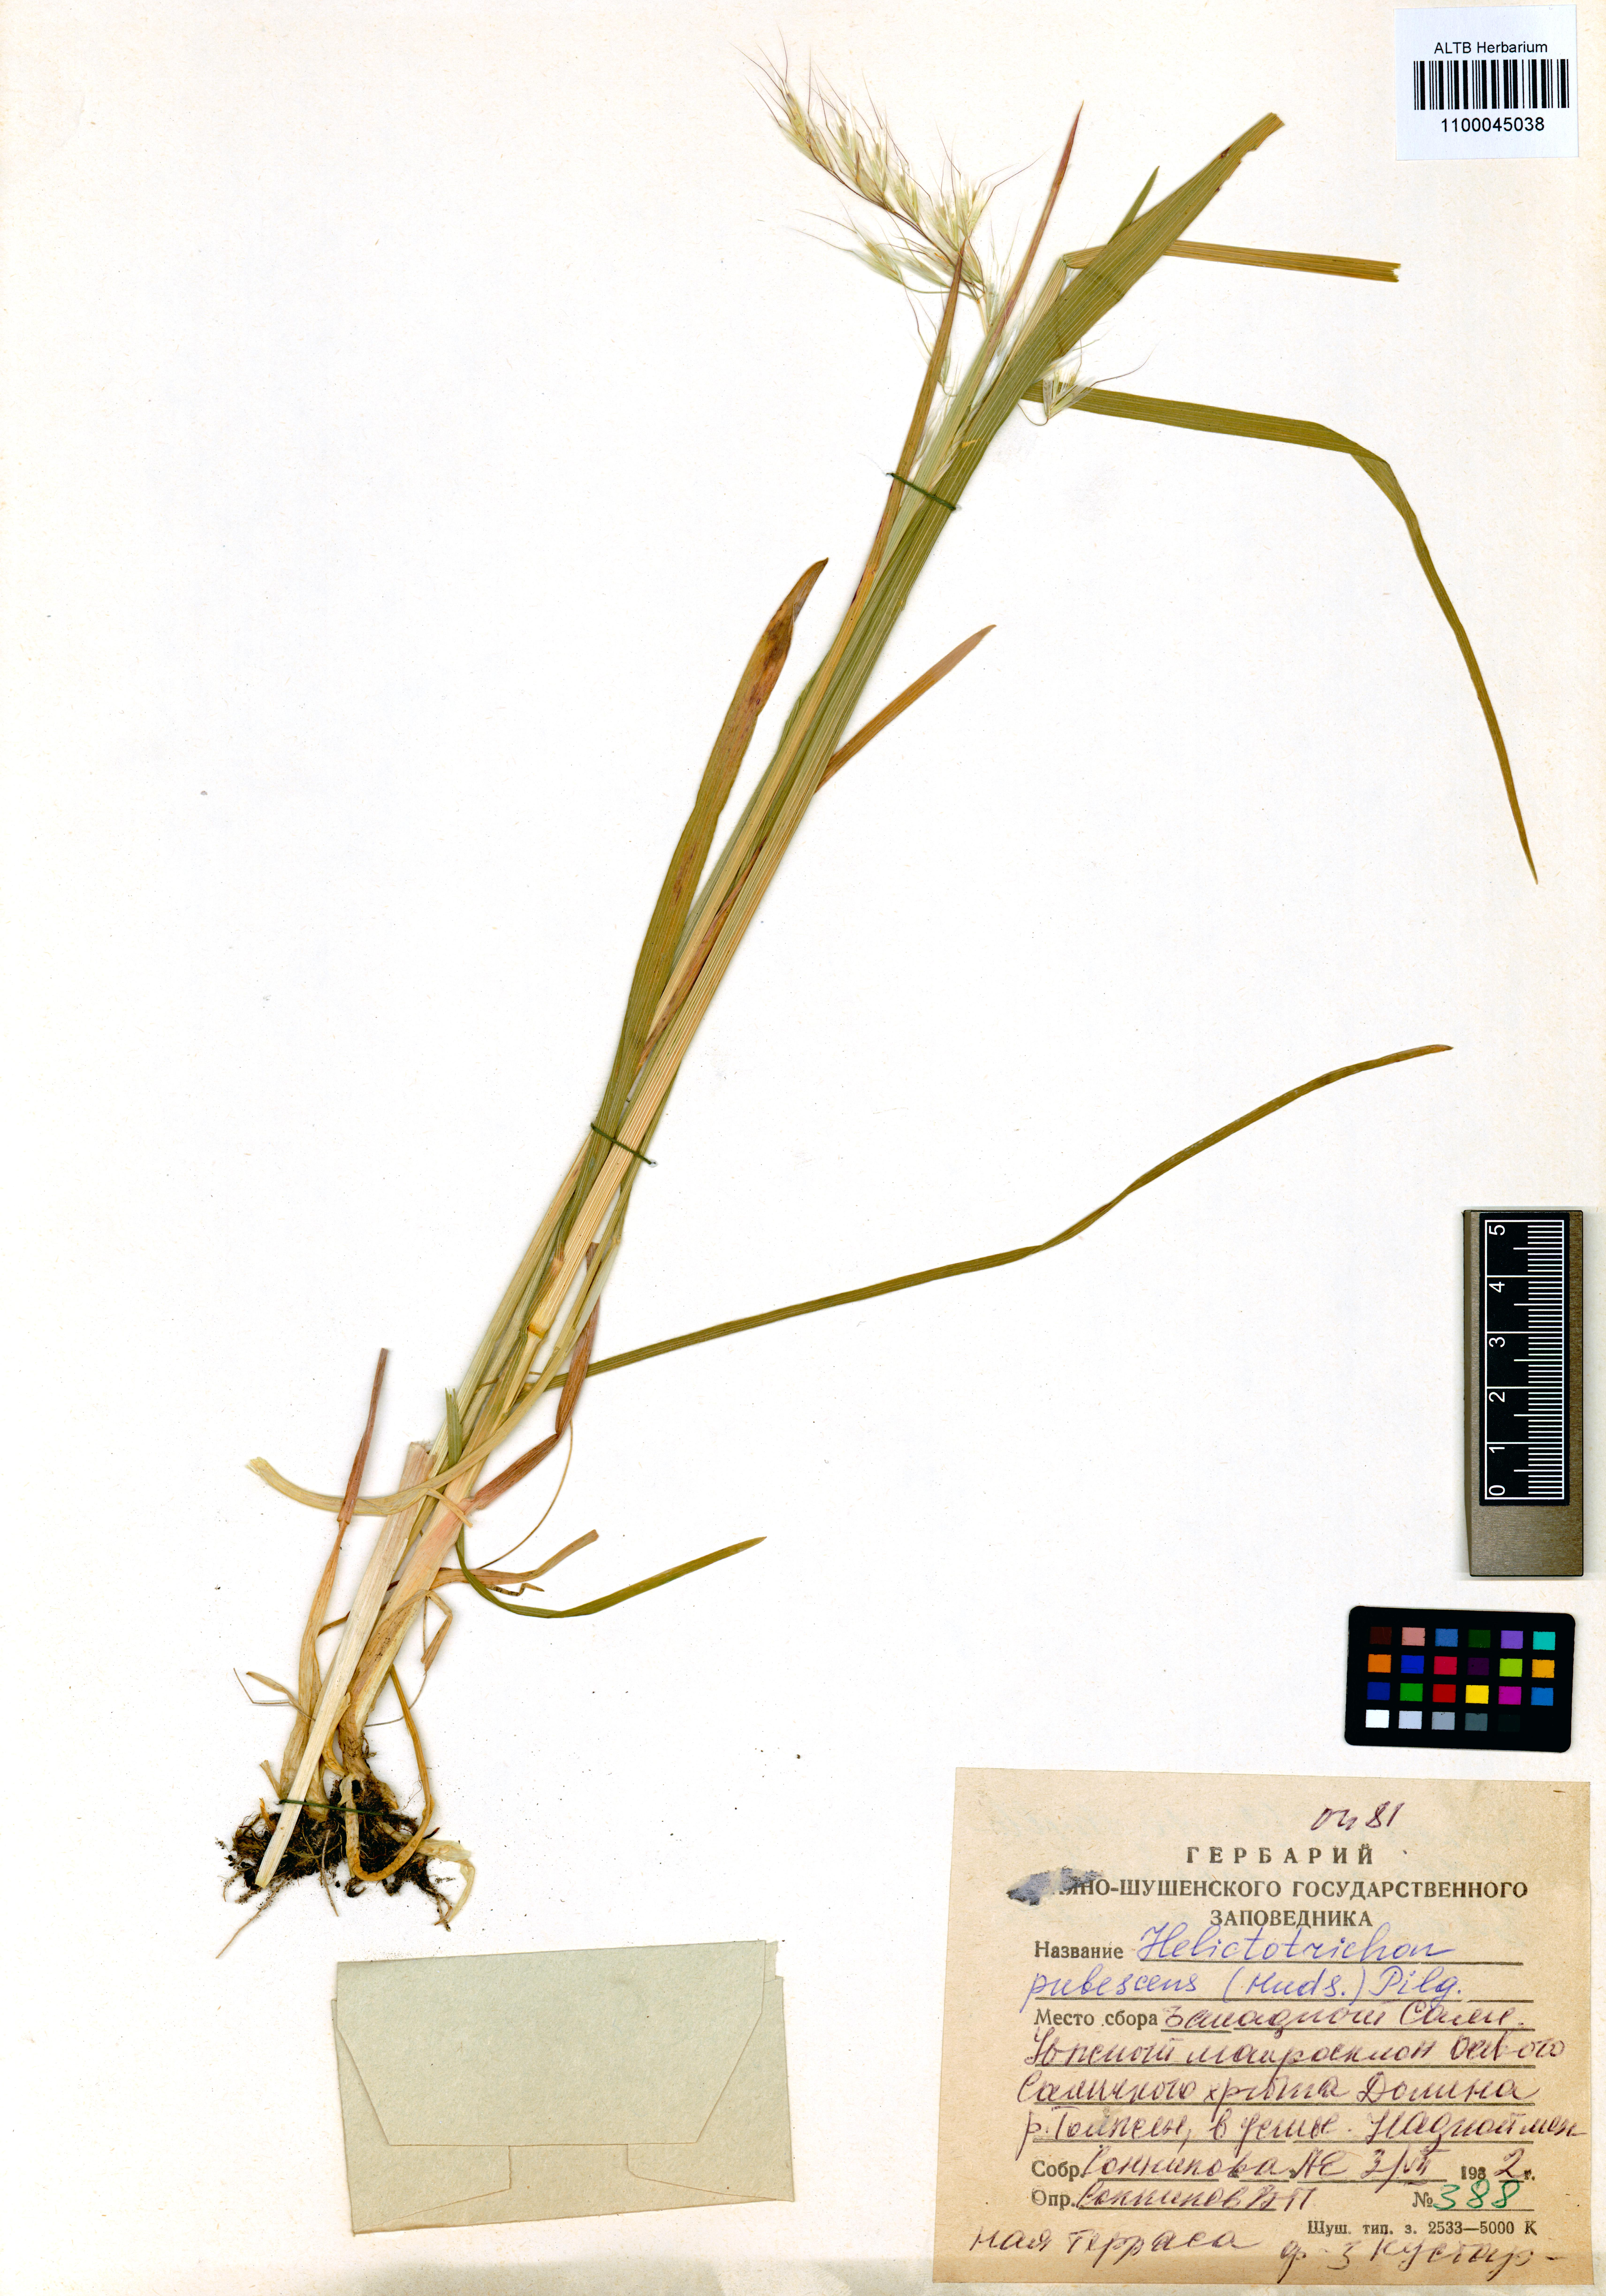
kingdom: Plantae
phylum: Tracheophyta
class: Liliopsida
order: Poales
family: Poaceae
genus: Avenula
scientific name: Avenula pubescens
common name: Downy alpine oatgrass
